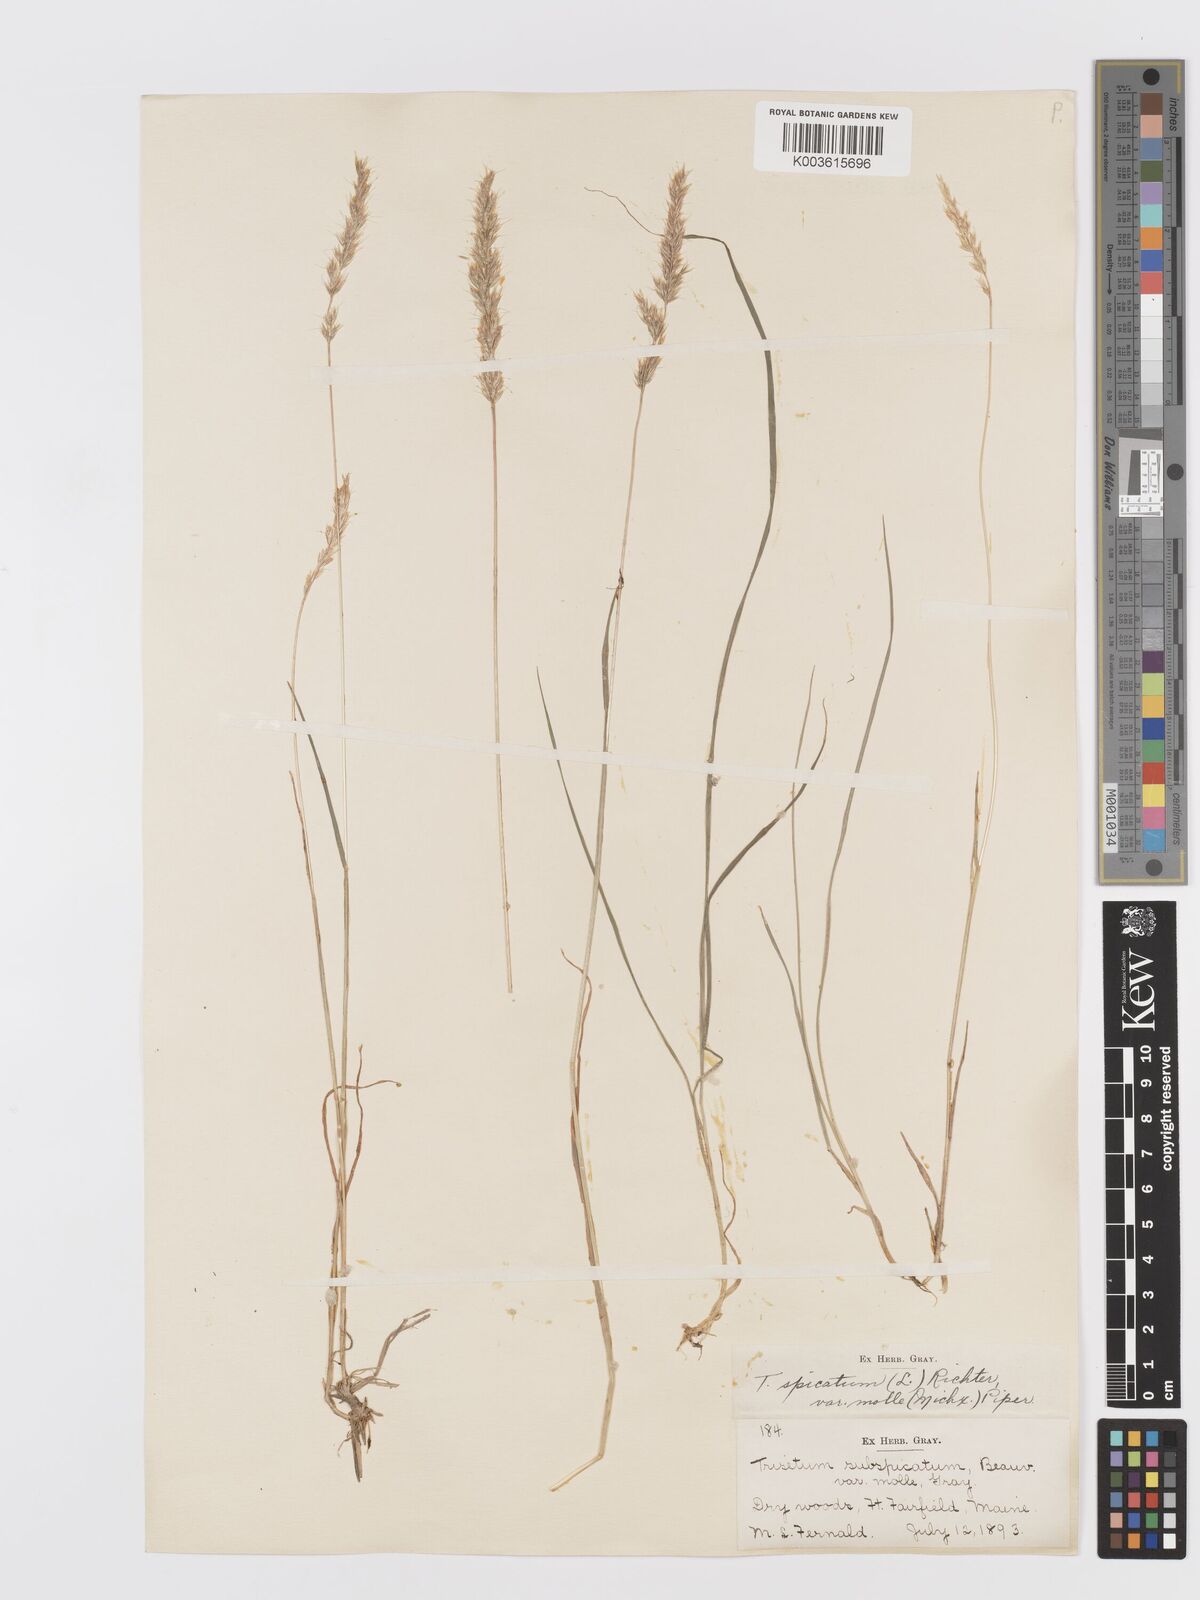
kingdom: Plantae
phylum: Tracheophyta
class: Liliopsida
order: Poales
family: Poaceae
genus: Koeleria
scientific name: Koeleria spicata
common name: Mountain trisetum
